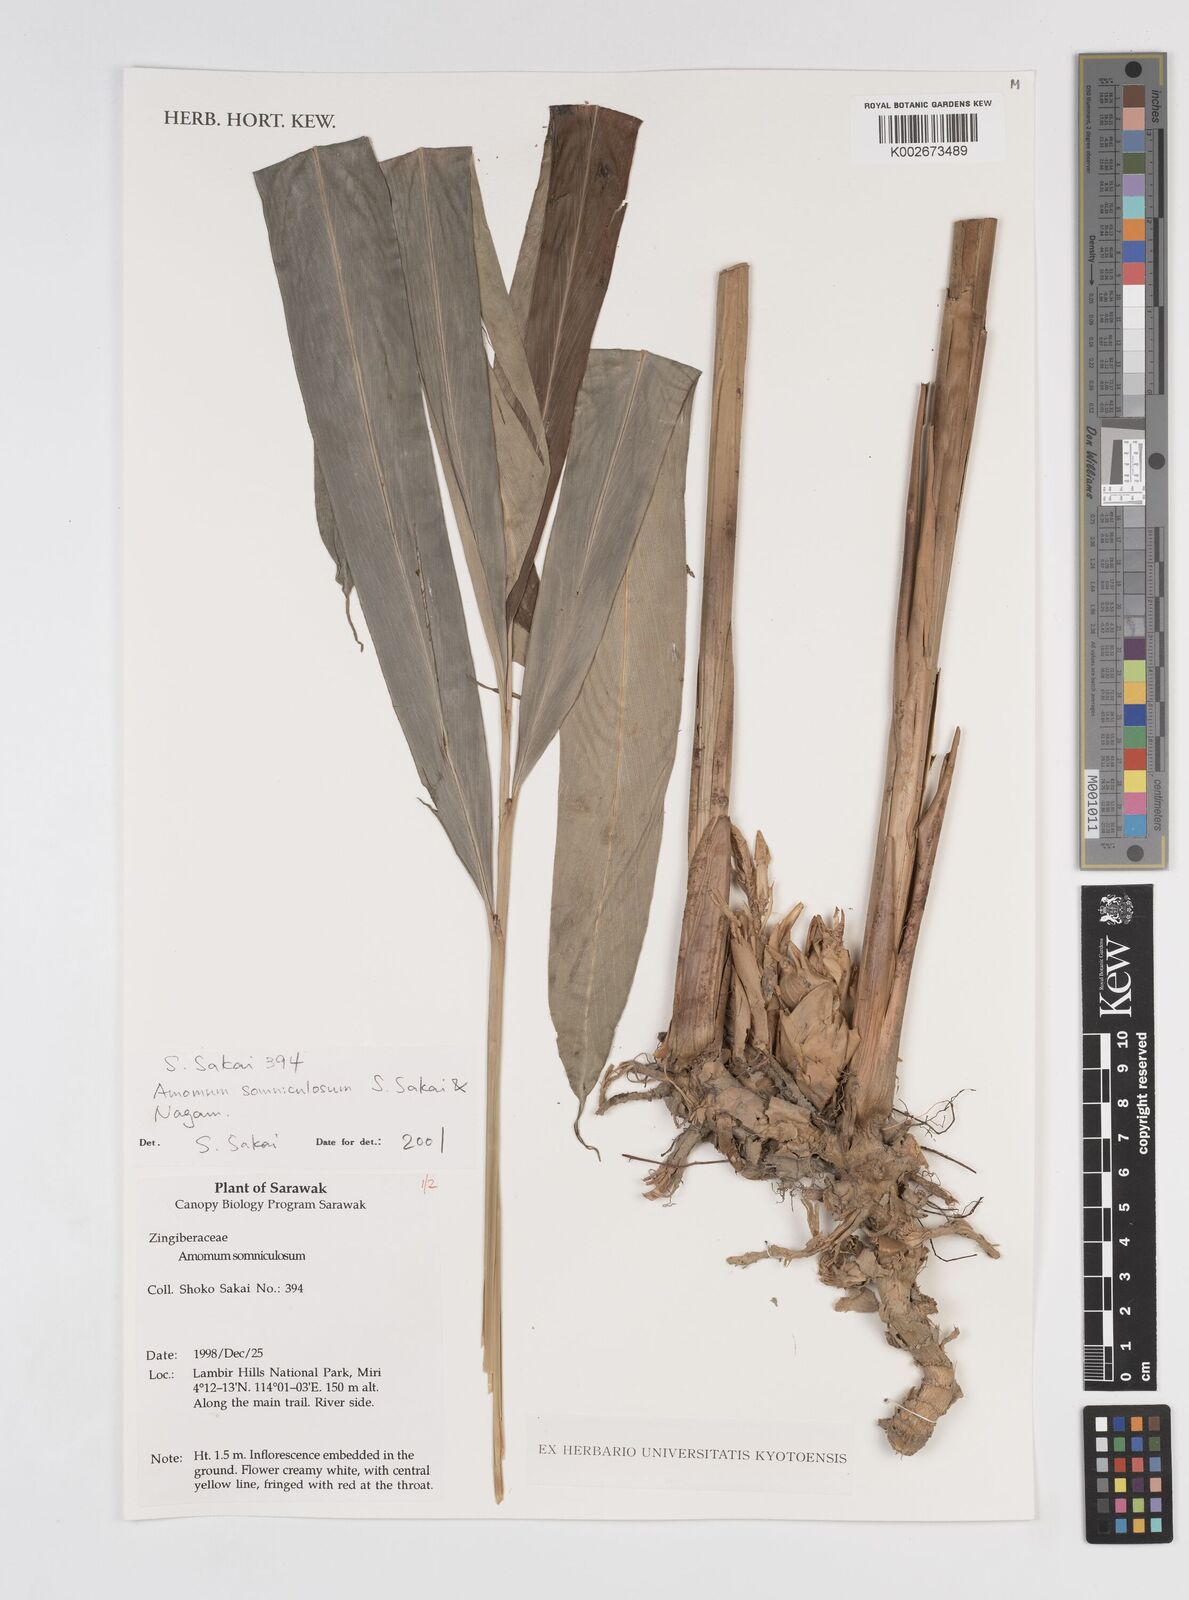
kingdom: Plantae
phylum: Tracheophyta
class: Liliopsida
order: Zingiberales
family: Zingiberaceae
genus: Sundamomum
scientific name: Sundamomum somniculosum
